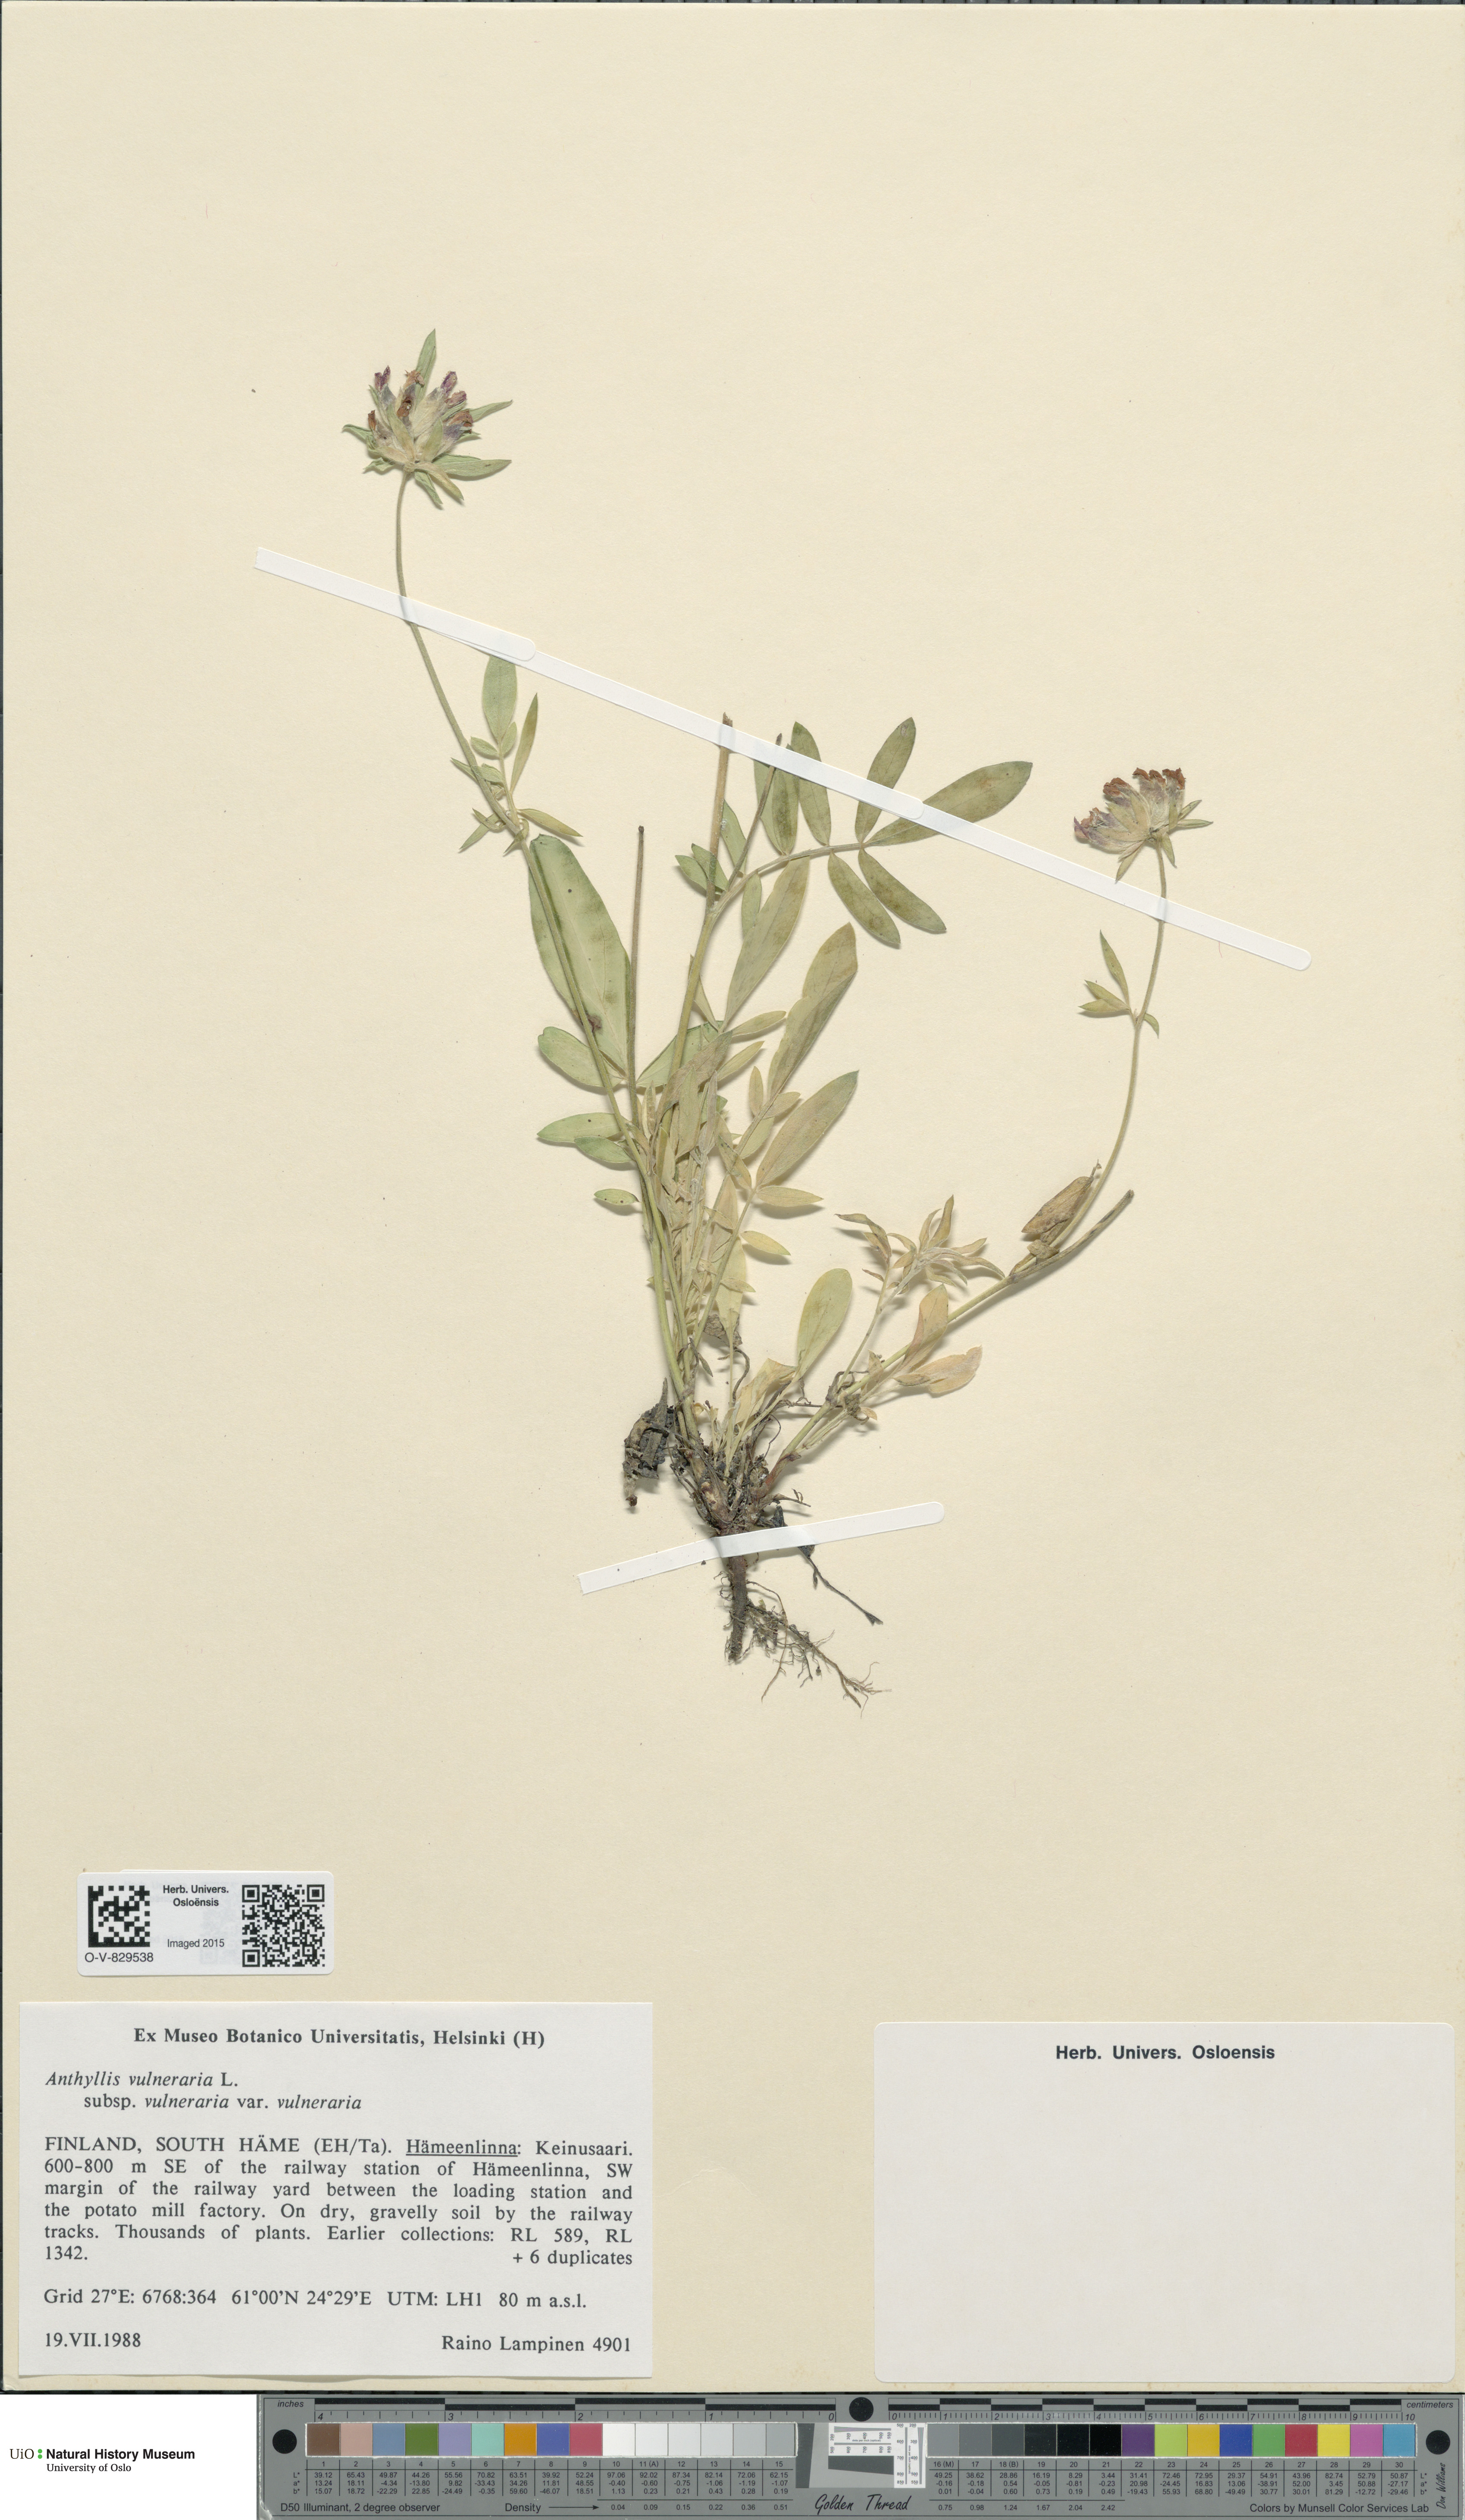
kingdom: Plantae
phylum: Tracheophyta
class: Magnoliopsida
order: Fabales
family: Fabaceae
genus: Anthyllis
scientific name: Anthyllis vulneraria
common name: Kidney vetch
